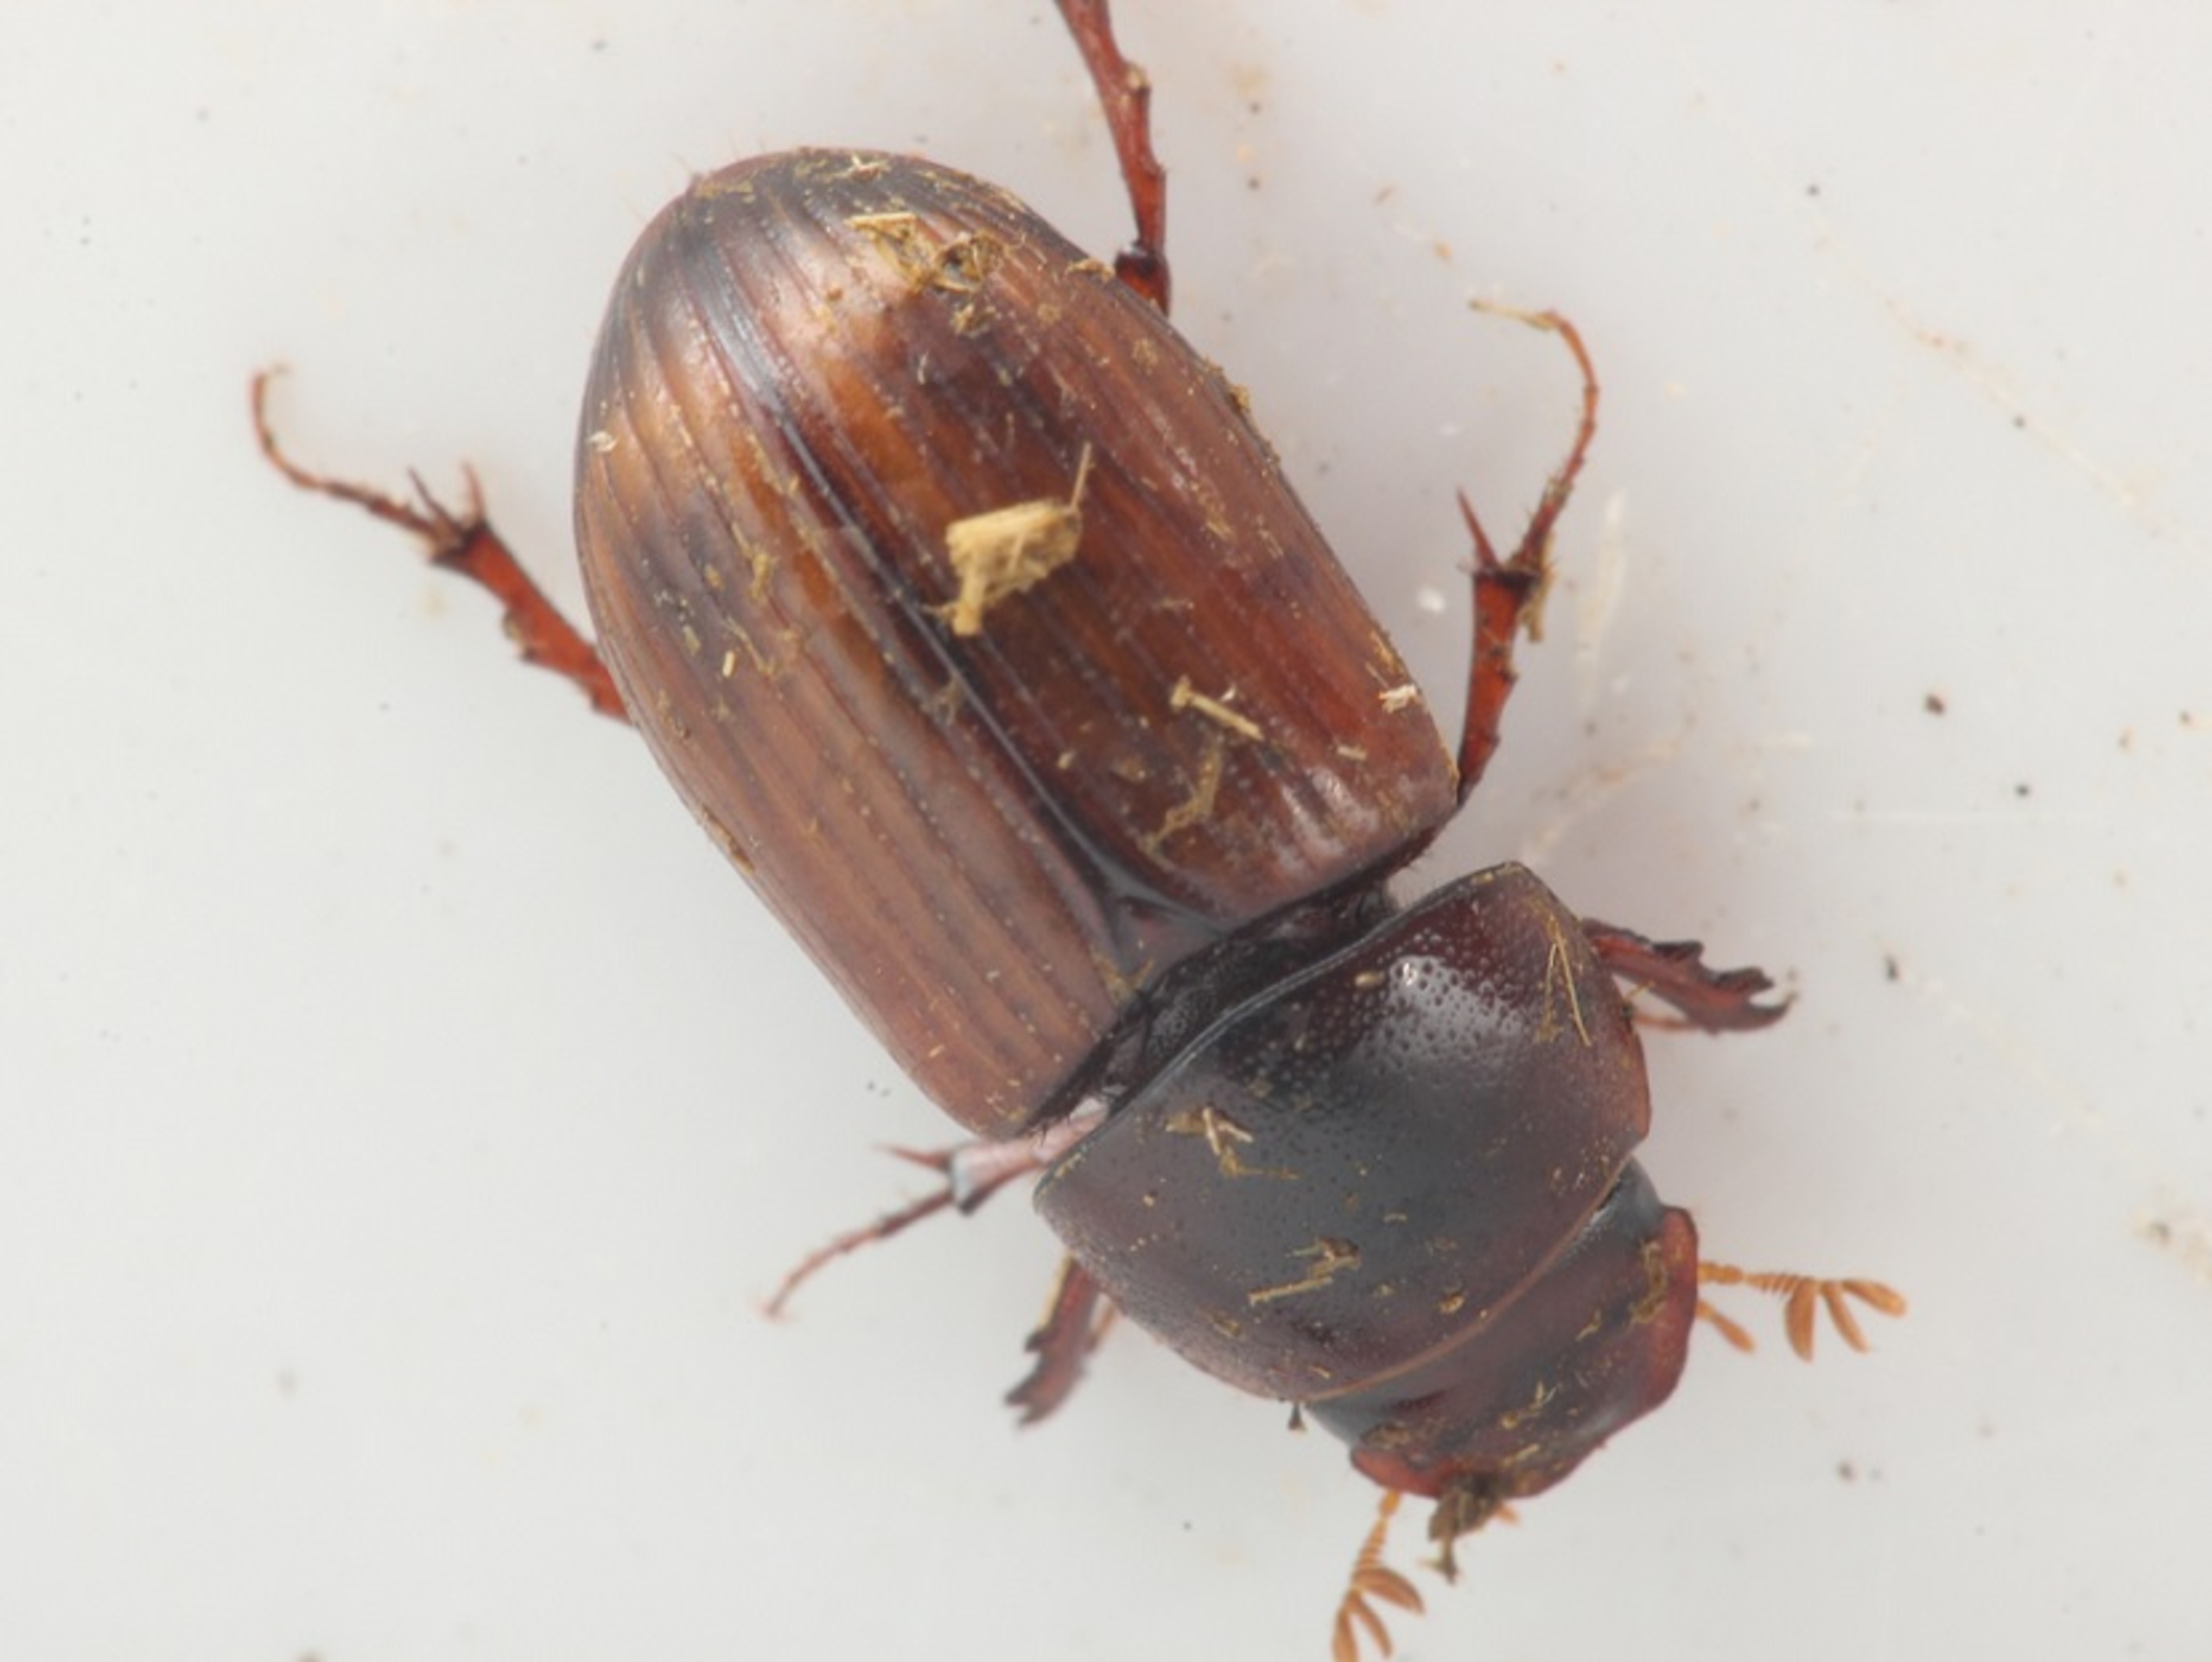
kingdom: Animalia
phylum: Arthropoda
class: Insecta
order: Coleoptera
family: Scarabaeidae
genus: Bodilopsis
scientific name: Bodilopsis rufus
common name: Mahognibrun møgbille
